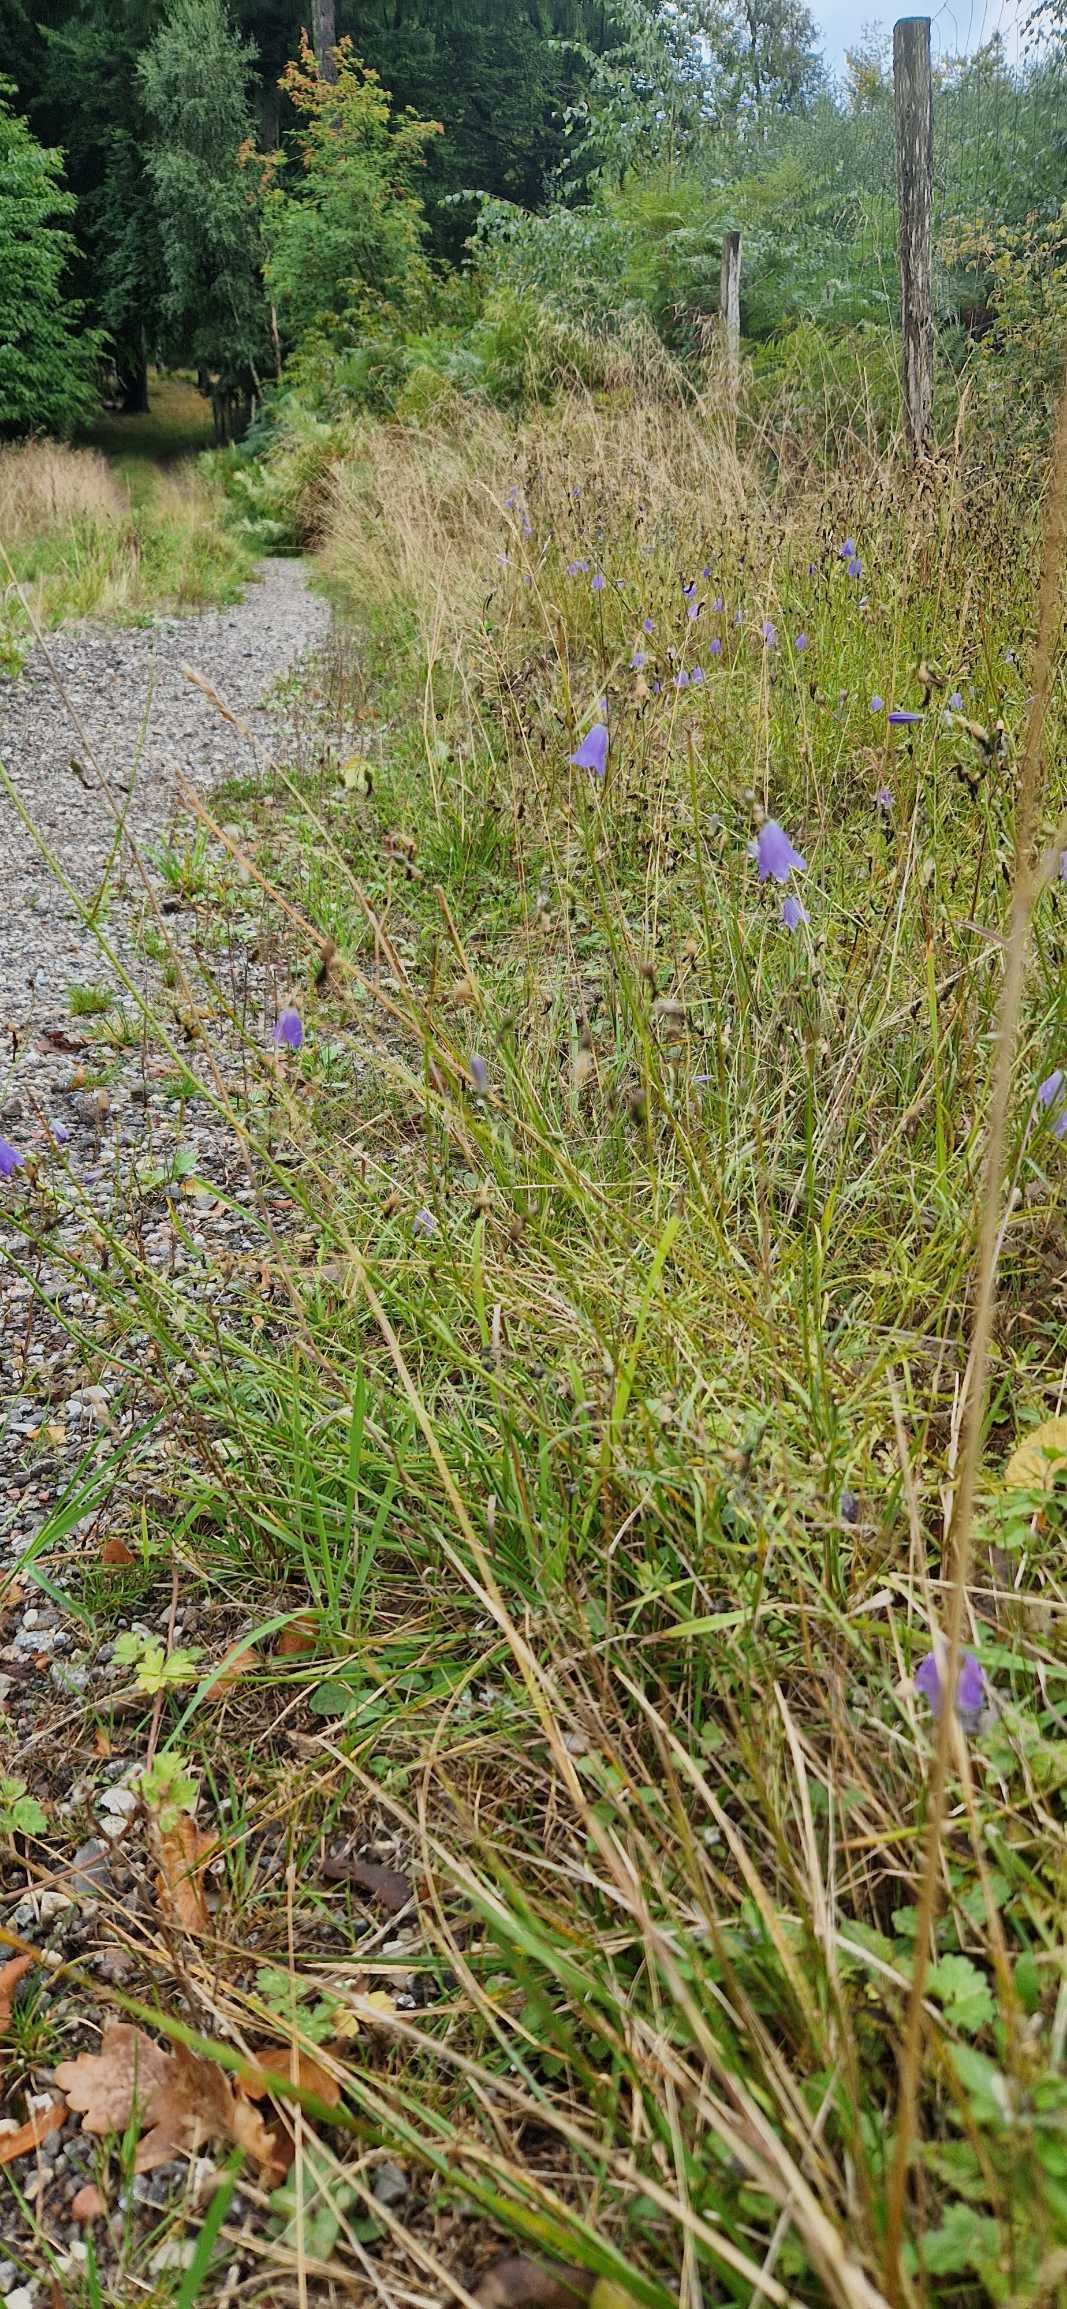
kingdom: Plantae
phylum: Tracheophyta
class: Magnoliopsida
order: Asterales
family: Campanulaceae
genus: Campanula
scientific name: Campanula rotundifolia
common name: Liden klokke
